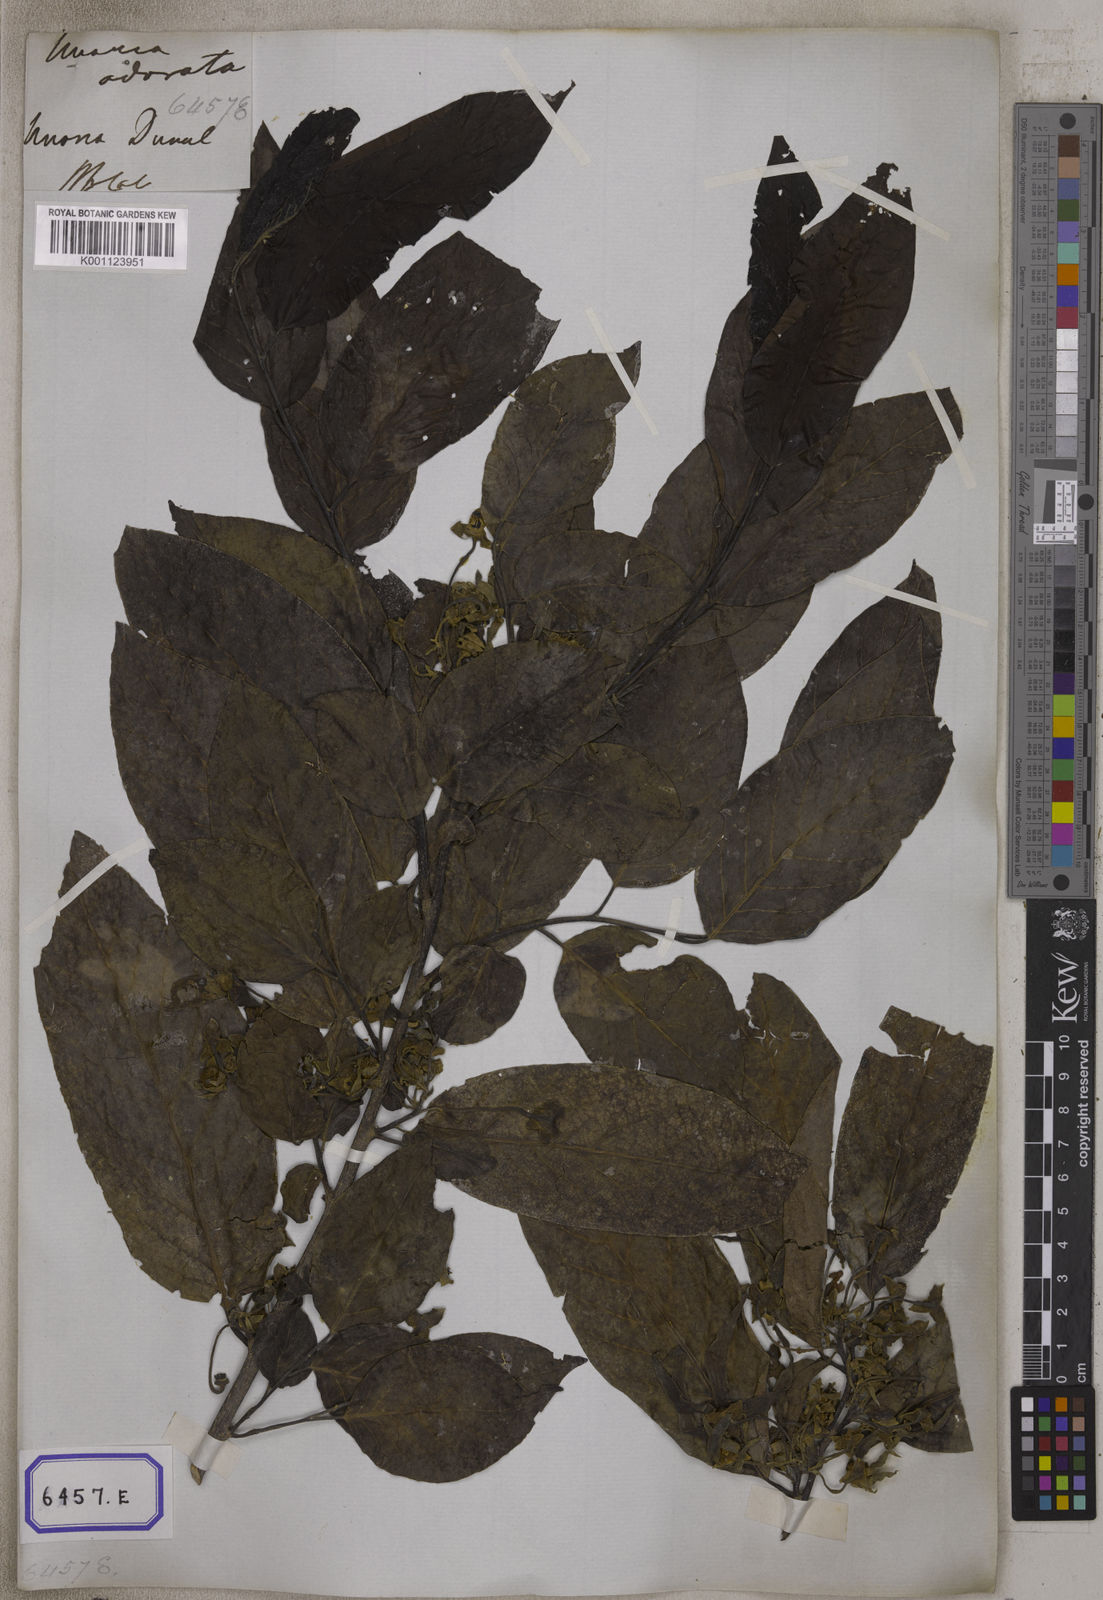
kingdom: Plantae
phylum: Tracheophyta
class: Magnoliopsida
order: Magnoliales
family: Annonaceae
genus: Uvaria
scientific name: Uvaria
